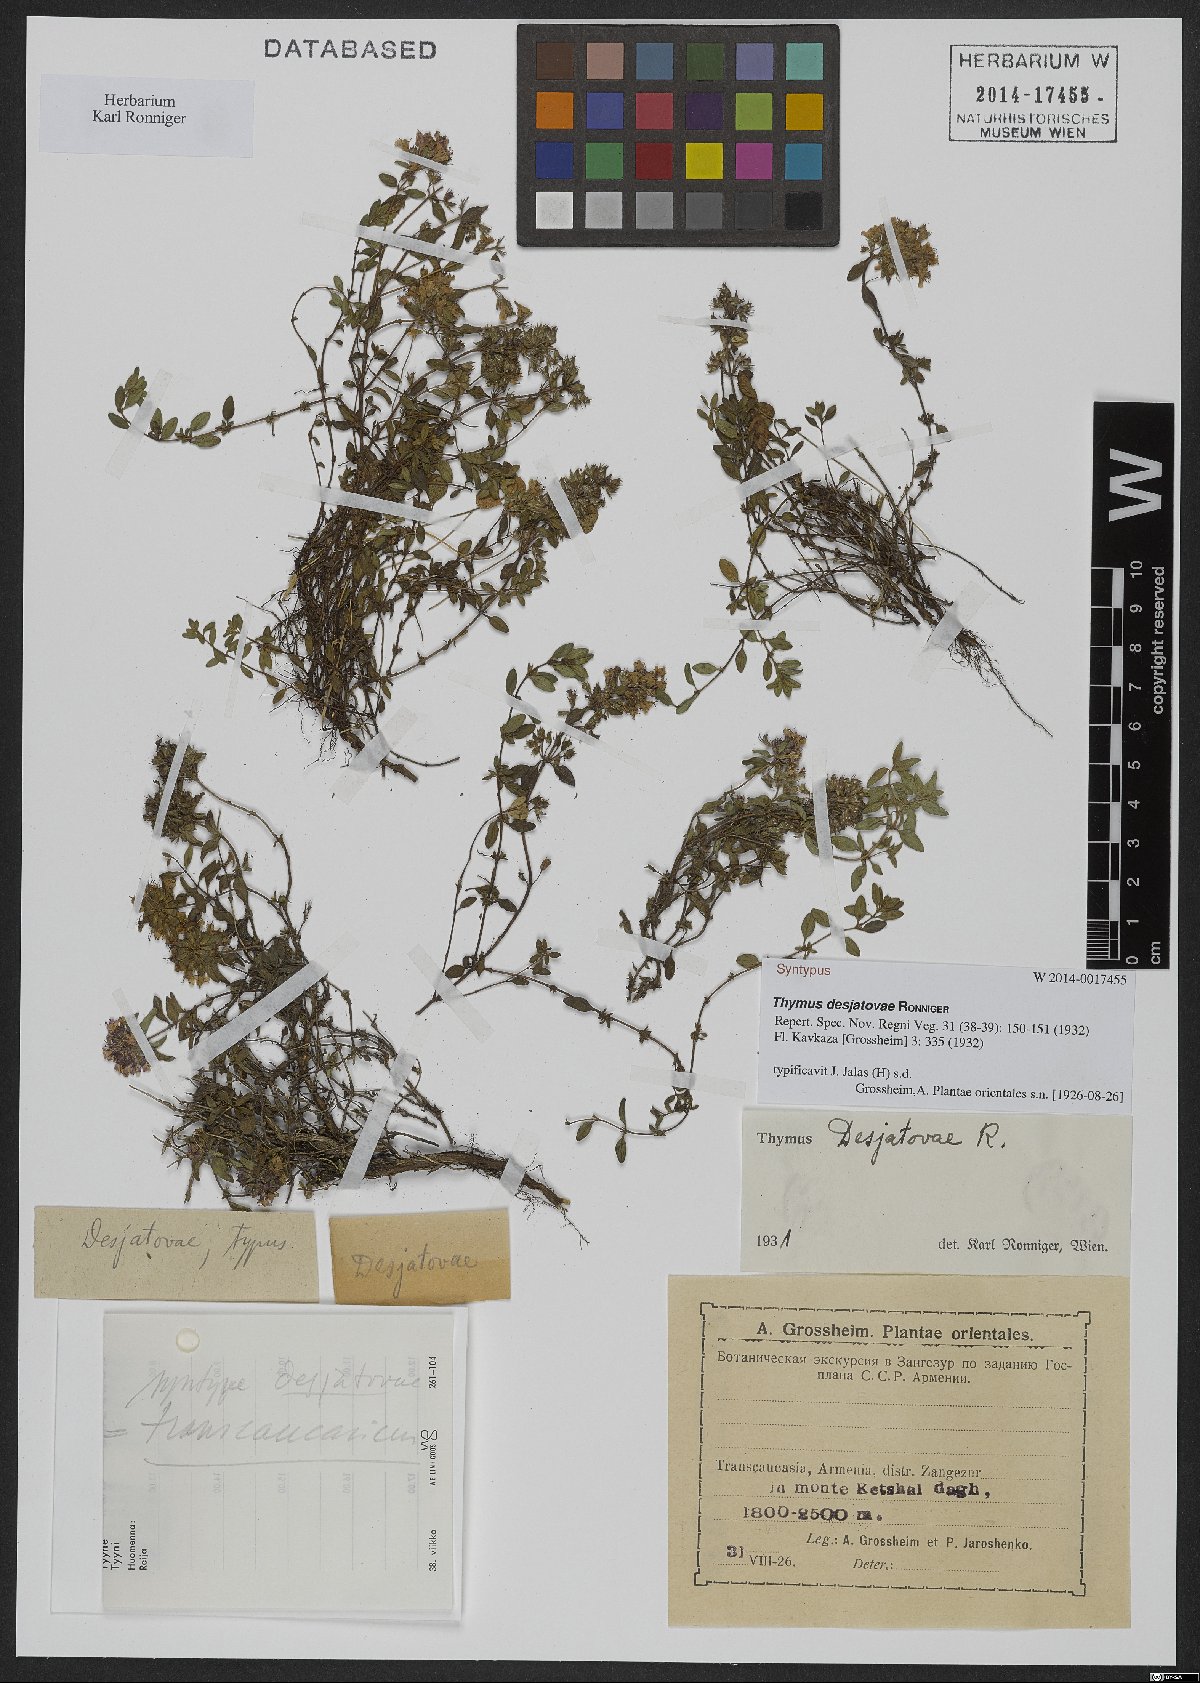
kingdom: Plantae
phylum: Tracheophyta
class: Magnoliopsida
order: Lamiales
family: Lamiaceae
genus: Thymus
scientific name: Thymus desjatovae
